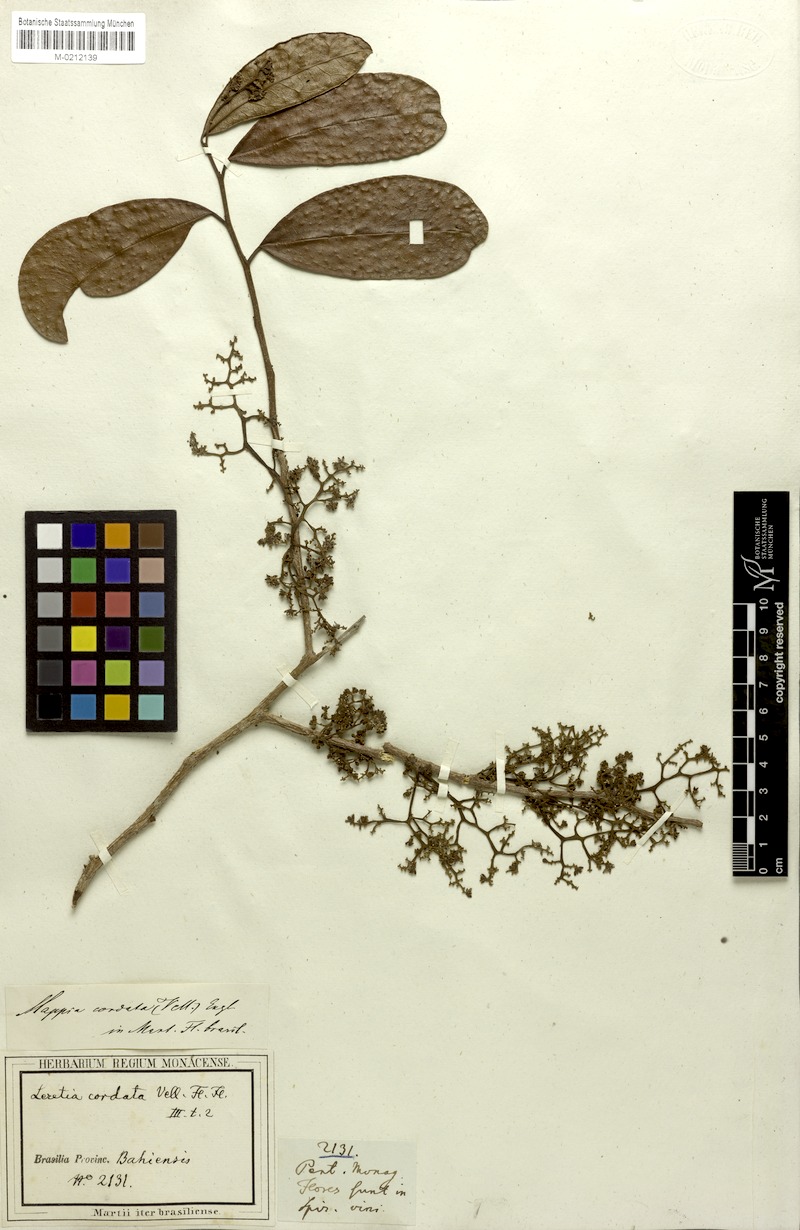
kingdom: Plantae
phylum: Tracheophyta
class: Magnoliopsida
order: Icacinales
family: Icacinaceae
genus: Leretia
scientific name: Leretia cordata
